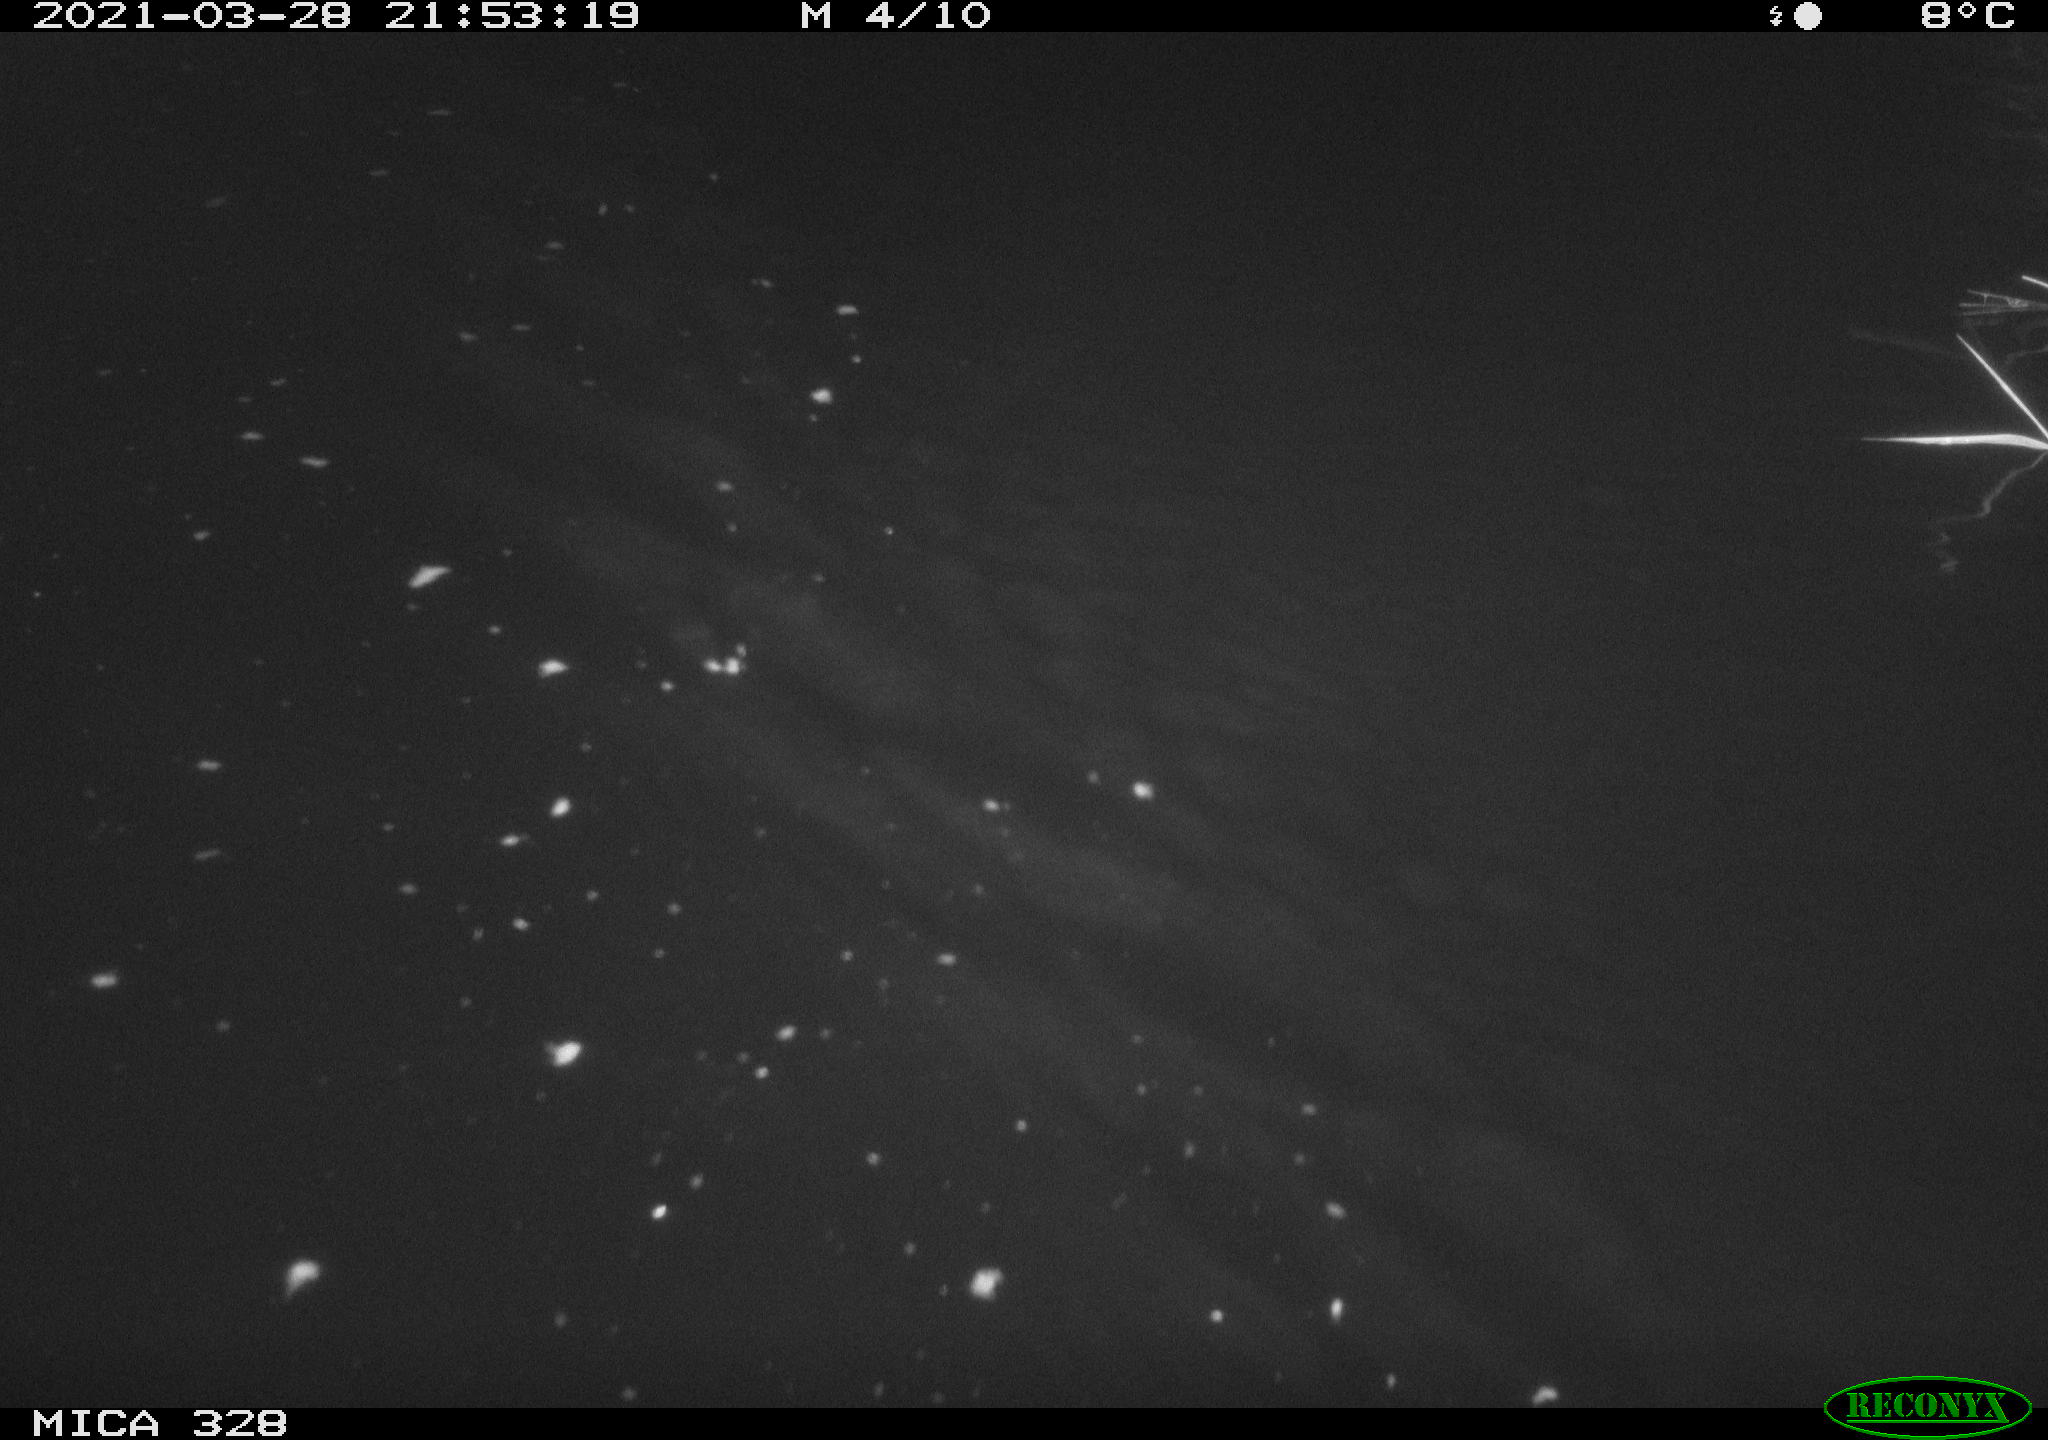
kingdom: Animalia
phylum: Chordata
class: Mammalia
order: Rodentia
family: Cricetidae
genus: Ondatra
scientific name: Ondatra zibethicus
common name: Muskrat
